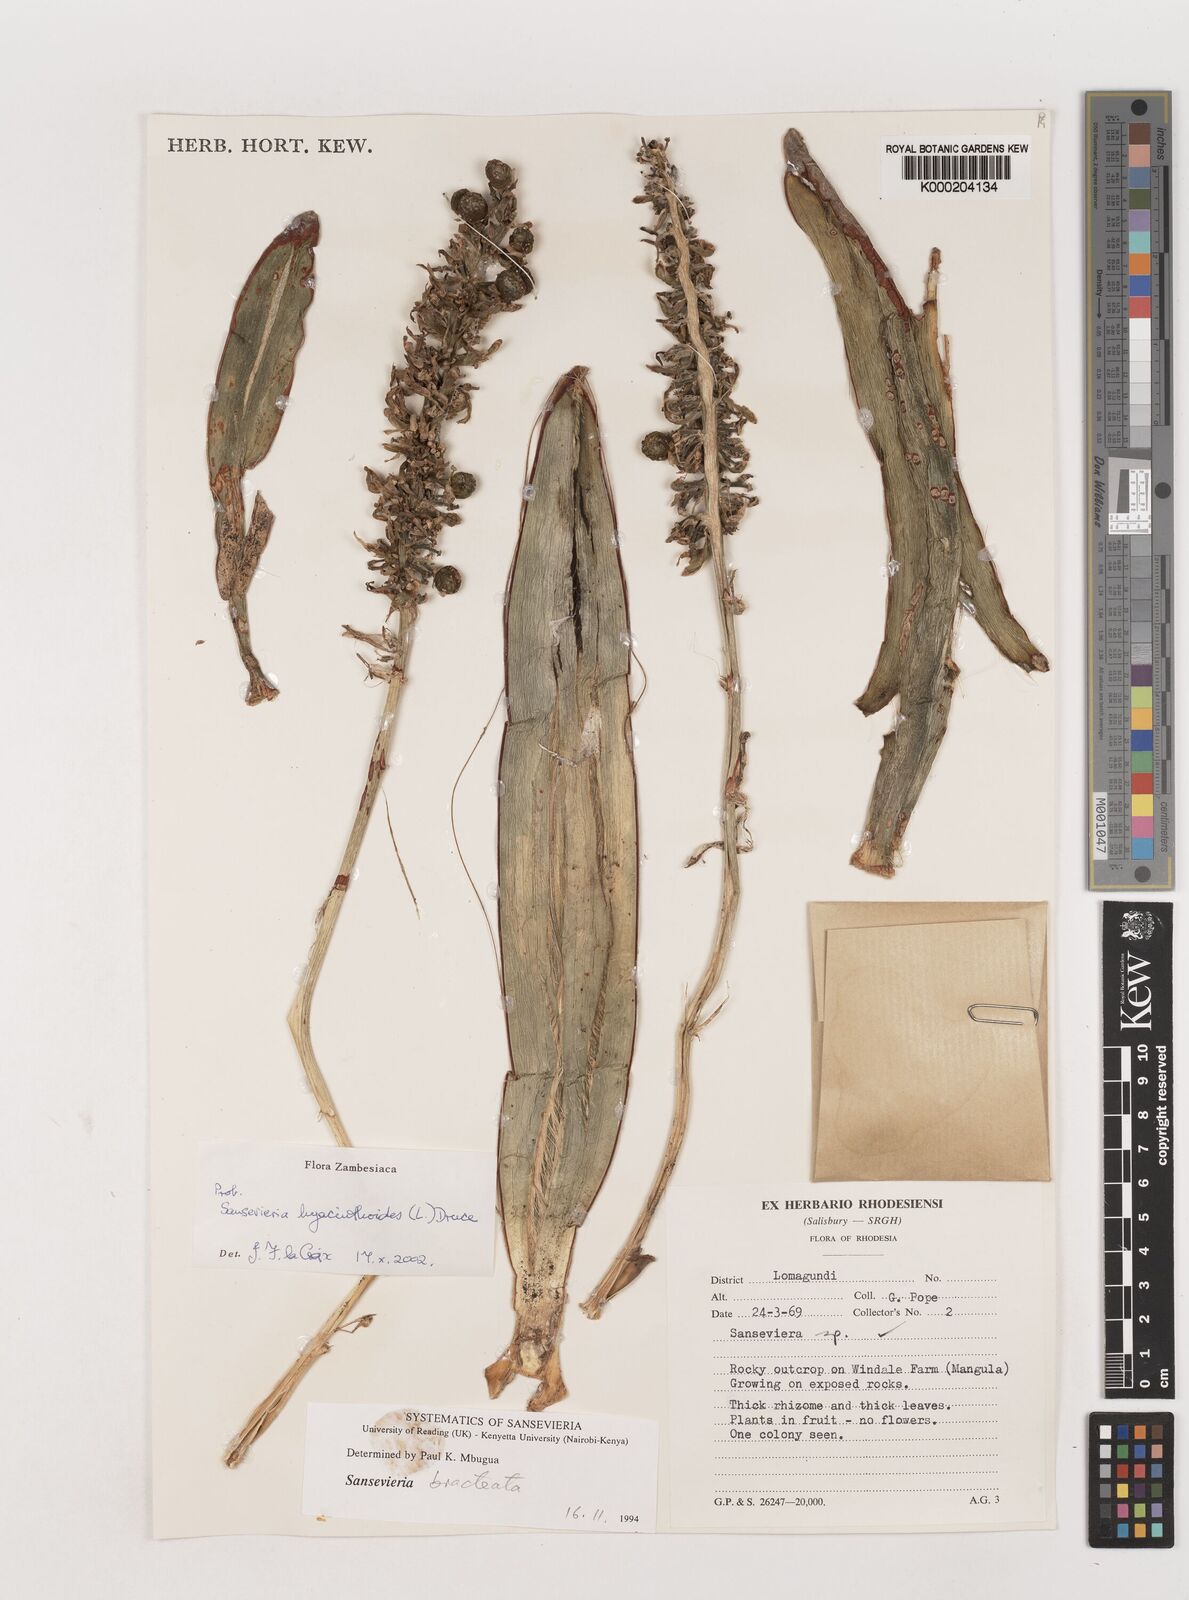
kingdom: Plantae
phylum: Tracheophyta
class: Liliopsida
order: Asparagales
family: Asparagaceae
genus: Dracaena
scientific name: Dracaena hyacinthoides
